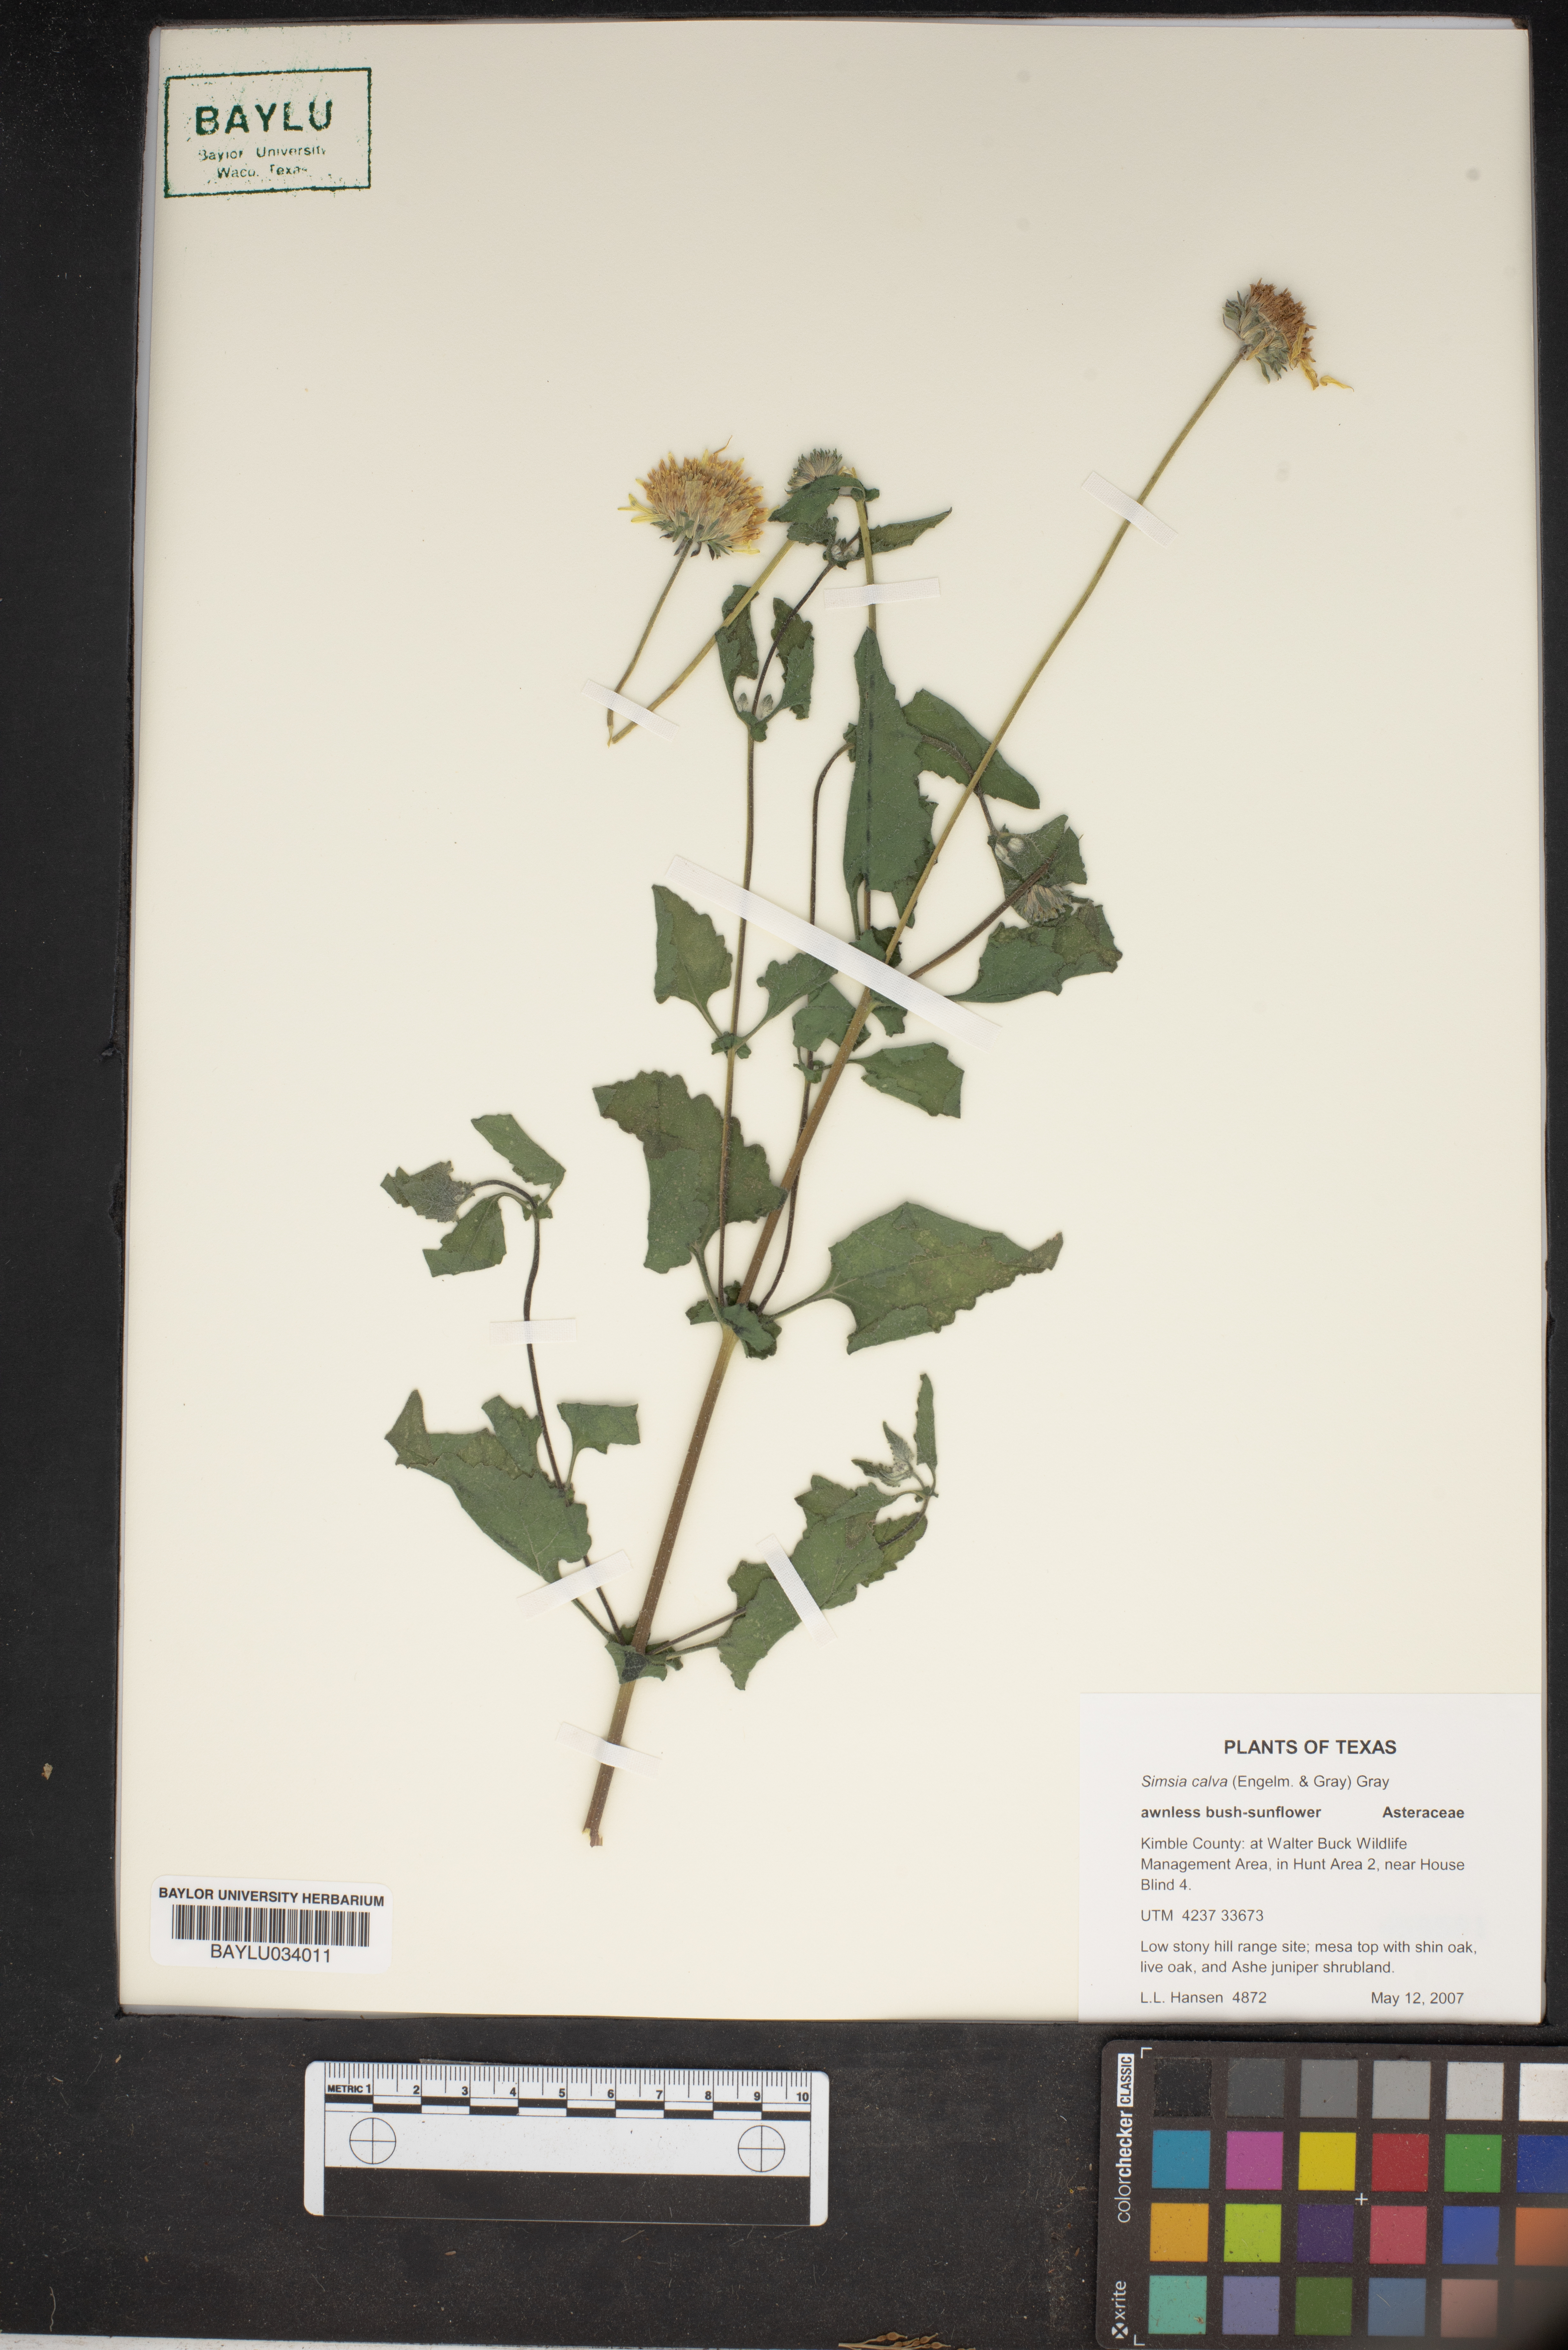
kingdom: Plantae
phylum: Tracheophyta
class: Magnoliopsida
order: Asterales
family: Asteraceae
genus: Simsia
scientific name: Simsia calva
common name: Awnless bush-sunflower
